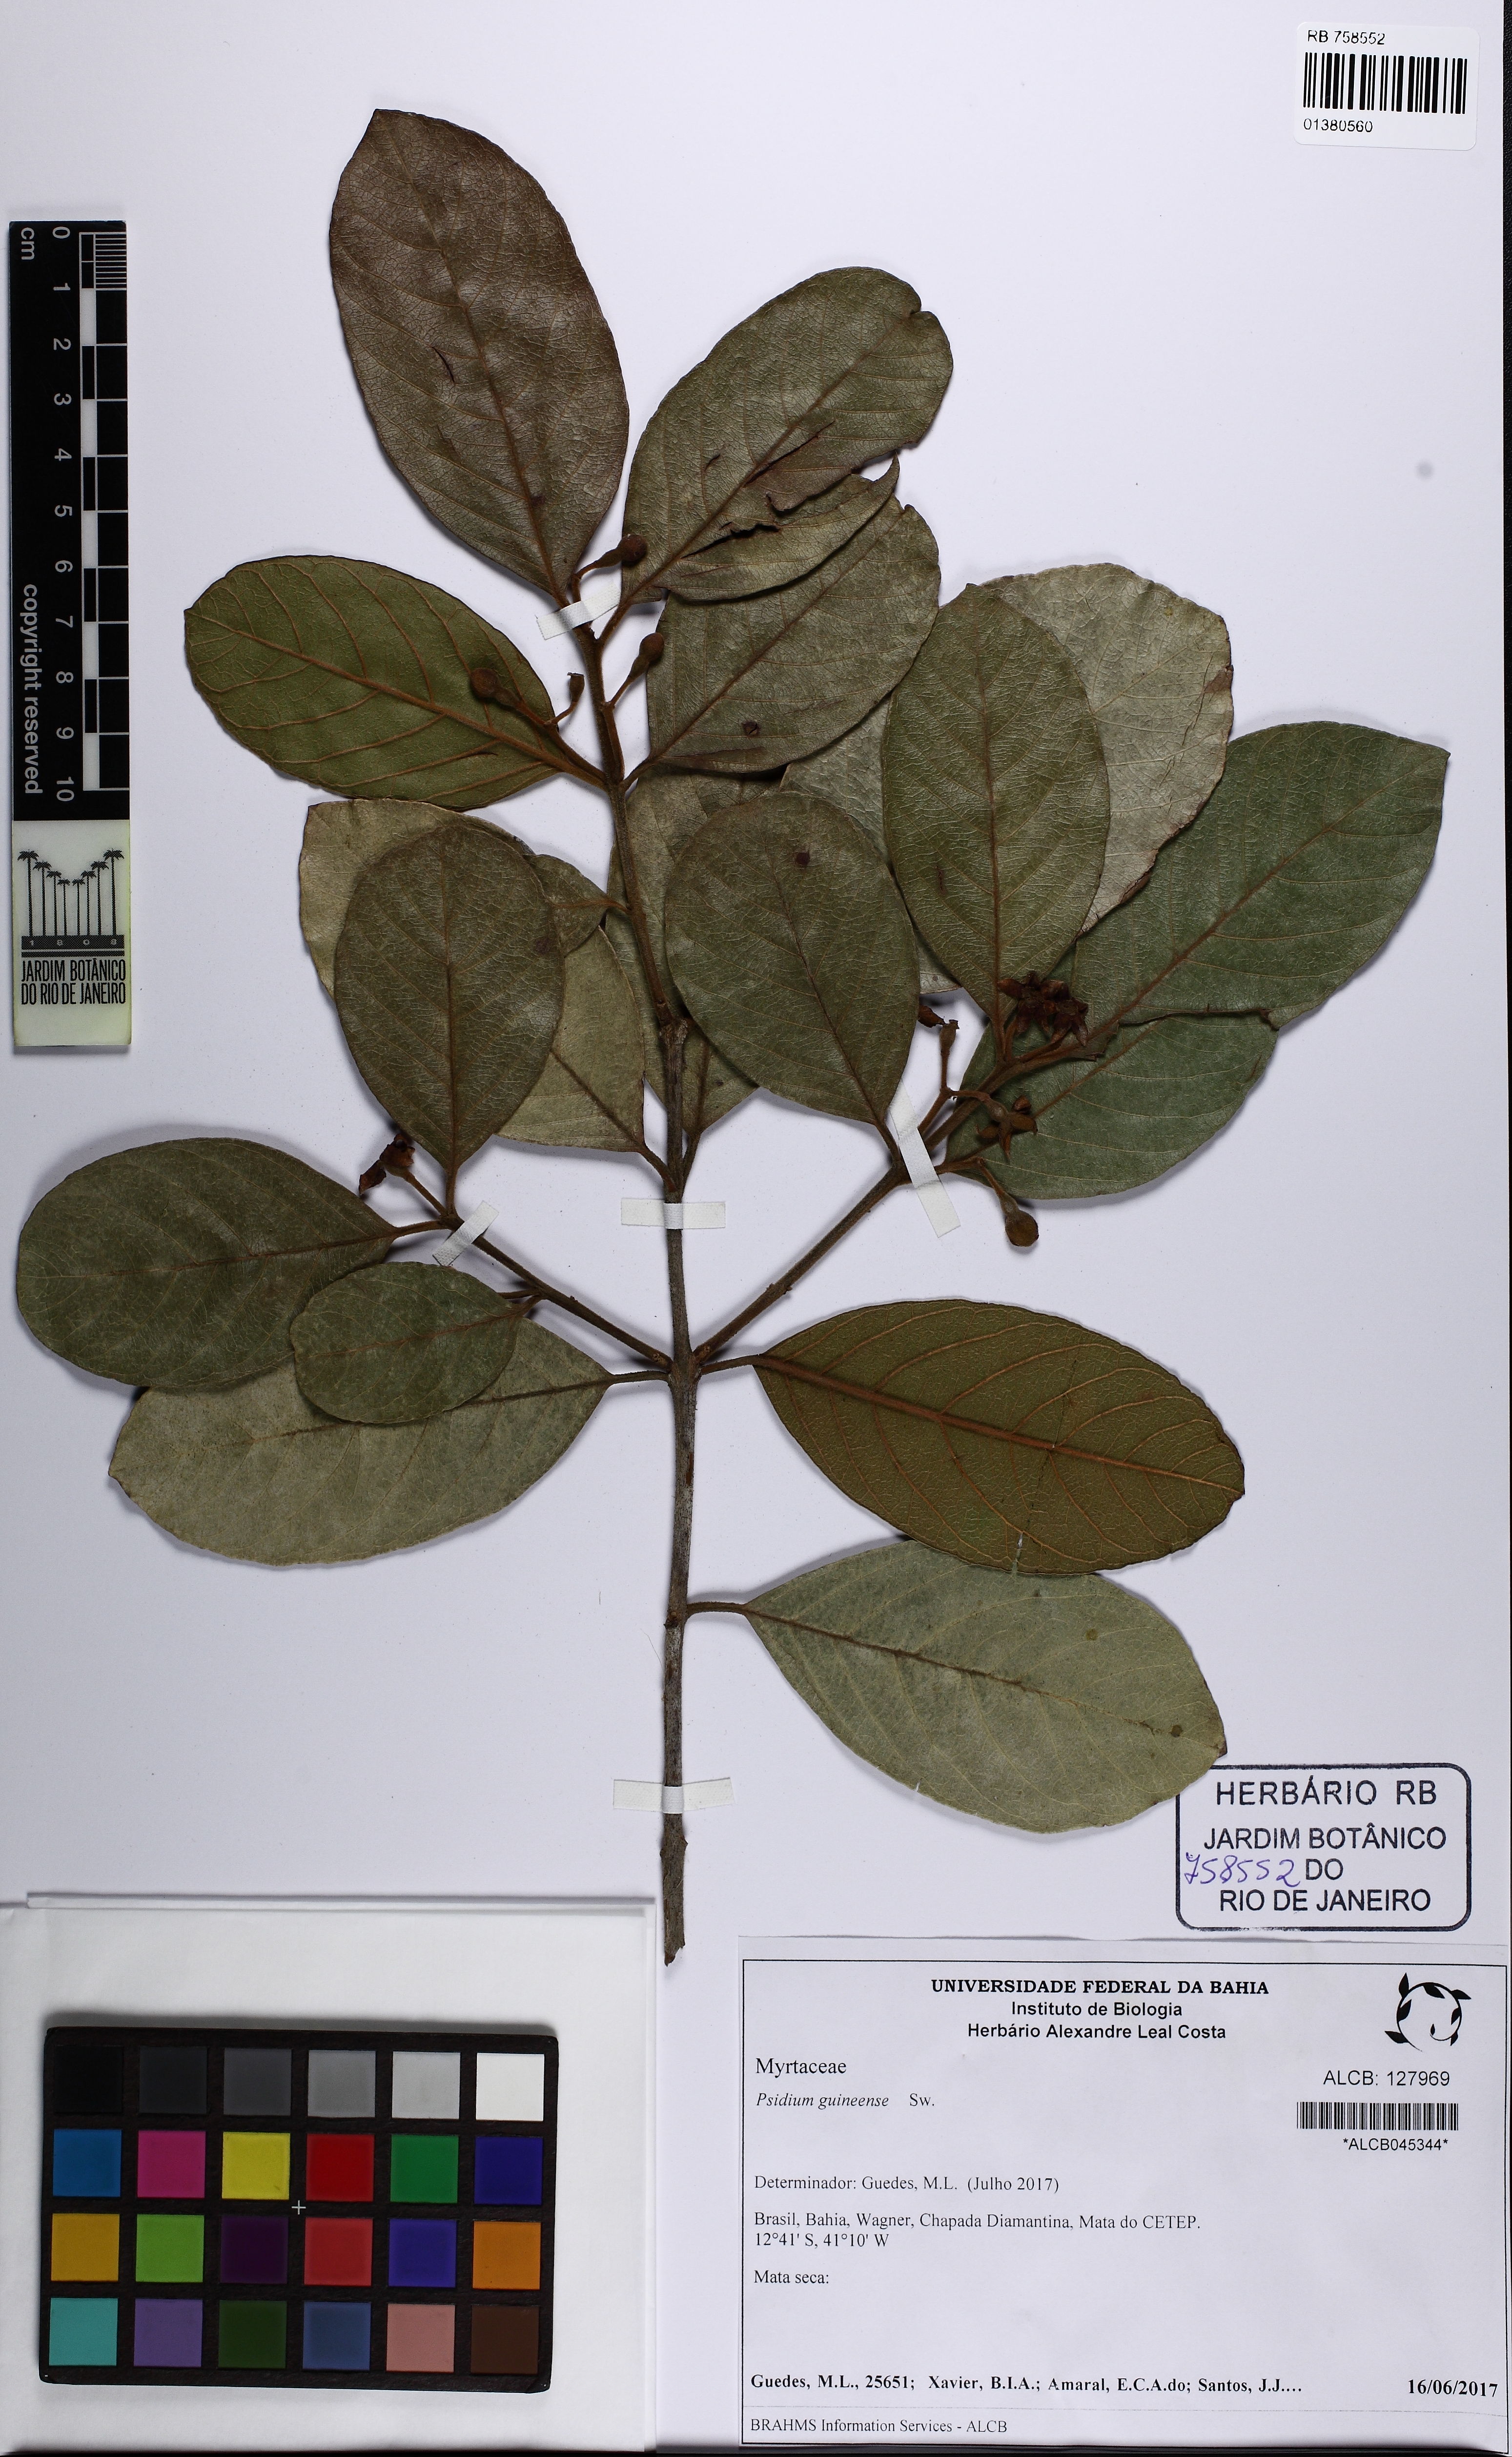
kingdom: Plantae
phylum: Tracheophyta
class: Magnoliopsida
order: Myrtales
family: Myrtaceae
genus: Psidium
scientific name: Psidium guineense
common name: Brazilian guava
